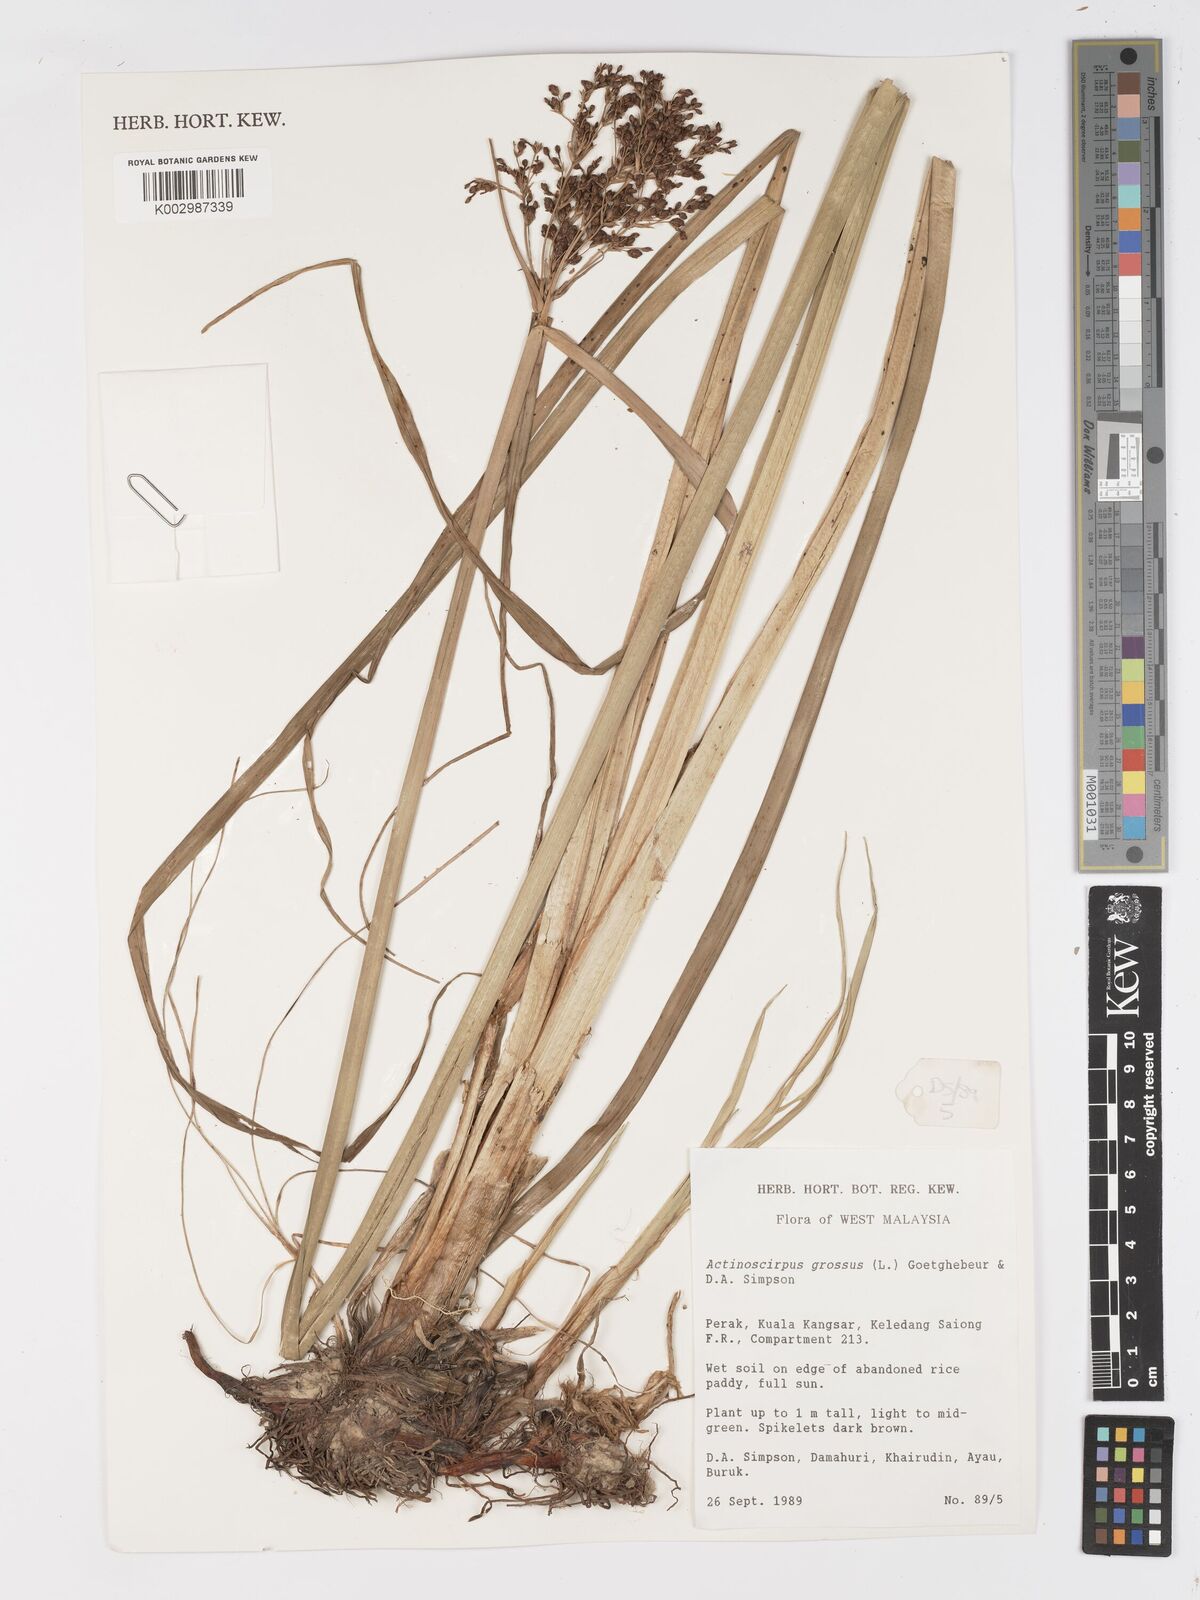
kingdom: Plantae
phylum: Tracheophyta
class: Liliopsida
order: Poales
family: Cyperaceae
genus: Actinoscirpus
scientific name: Actinoscirpus grossus
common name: Giant bur rush
